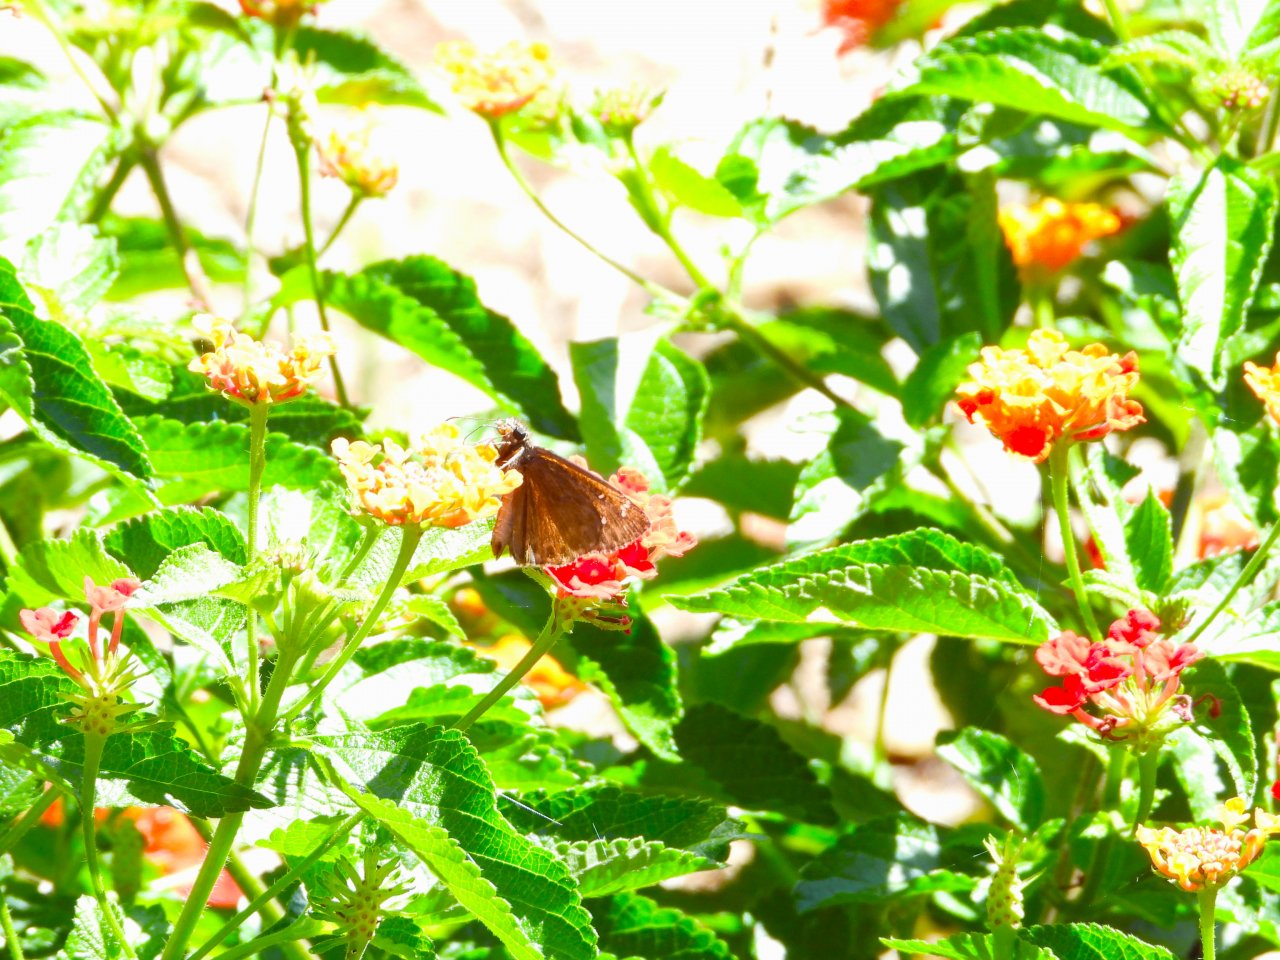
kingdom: Animalia
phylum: Arthropoda
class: Insecta
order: Lepidoptera
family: Hesperiidae
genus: Gesta
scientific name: Gesta
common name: Horace's Duskywing
